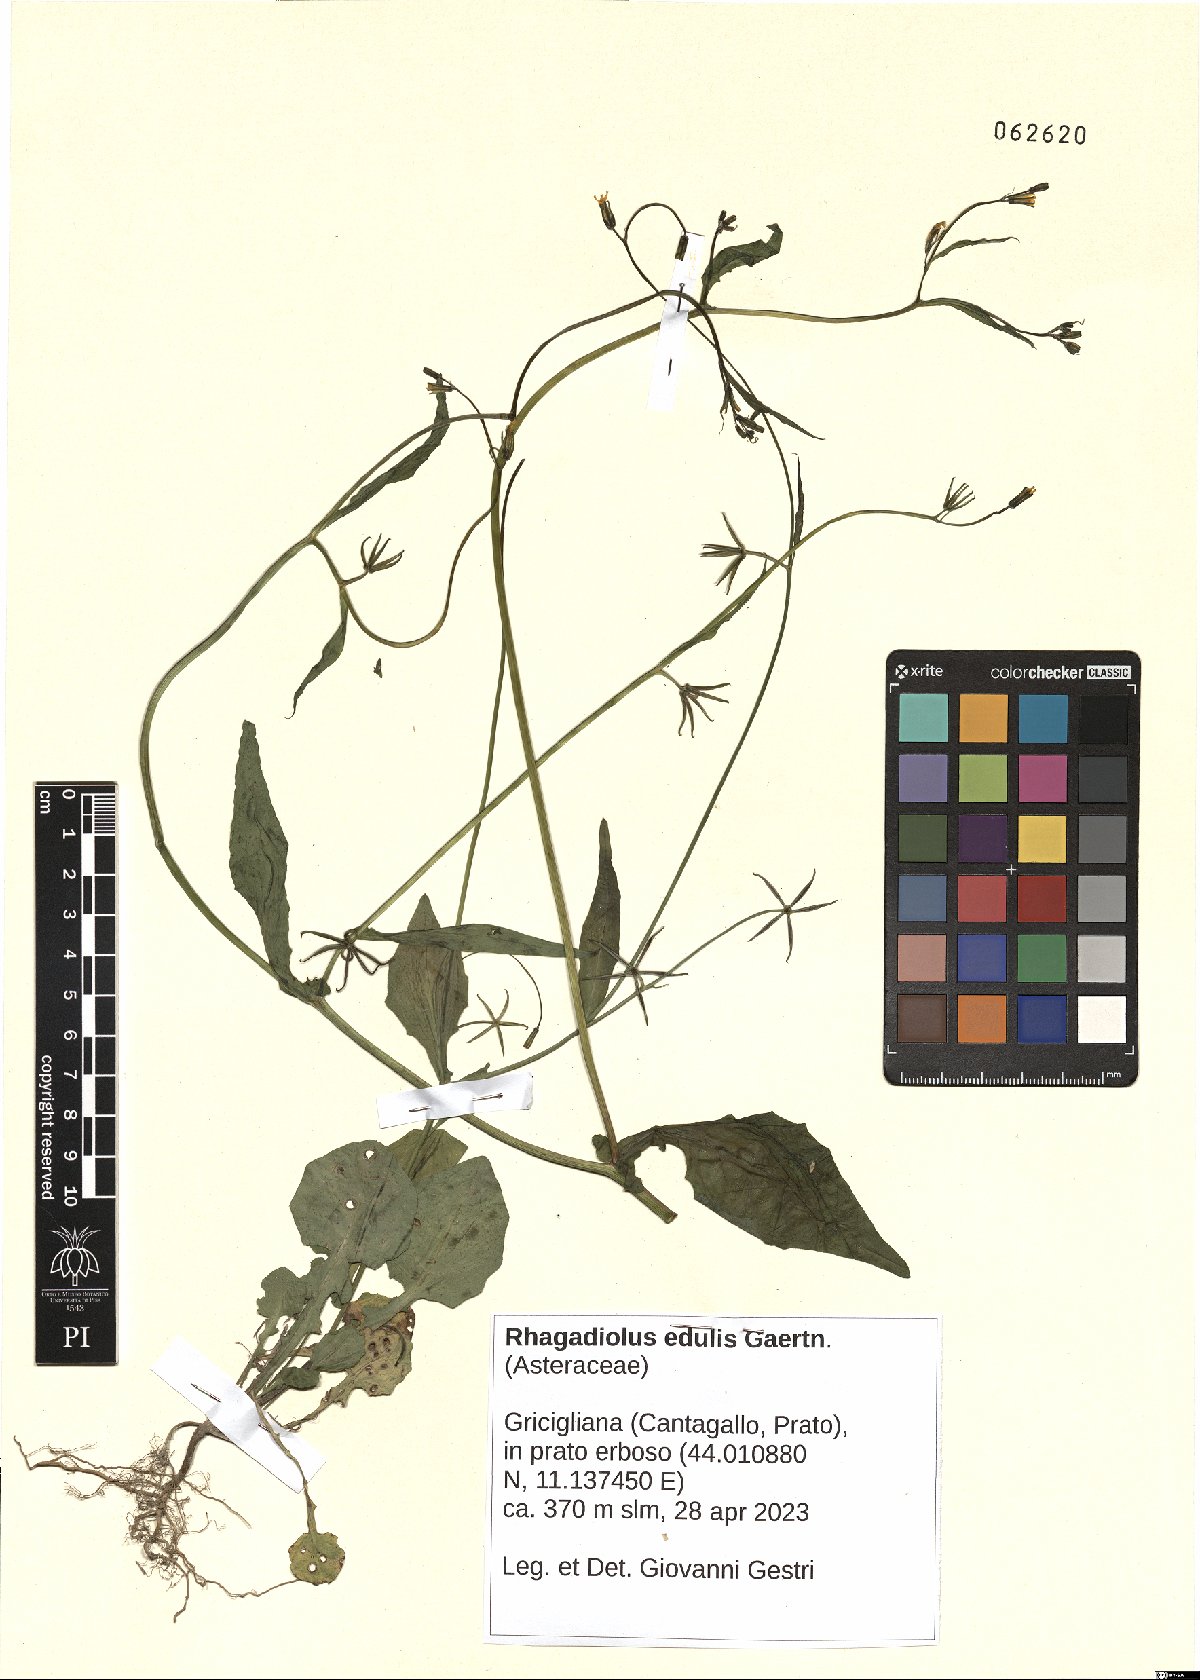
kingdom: Plantae
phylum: Tracheophyta
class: Magnoliopsida
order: Asterales
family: Asteraceae
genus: Rhagadiolus
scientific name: Rhagadiolus edulis
